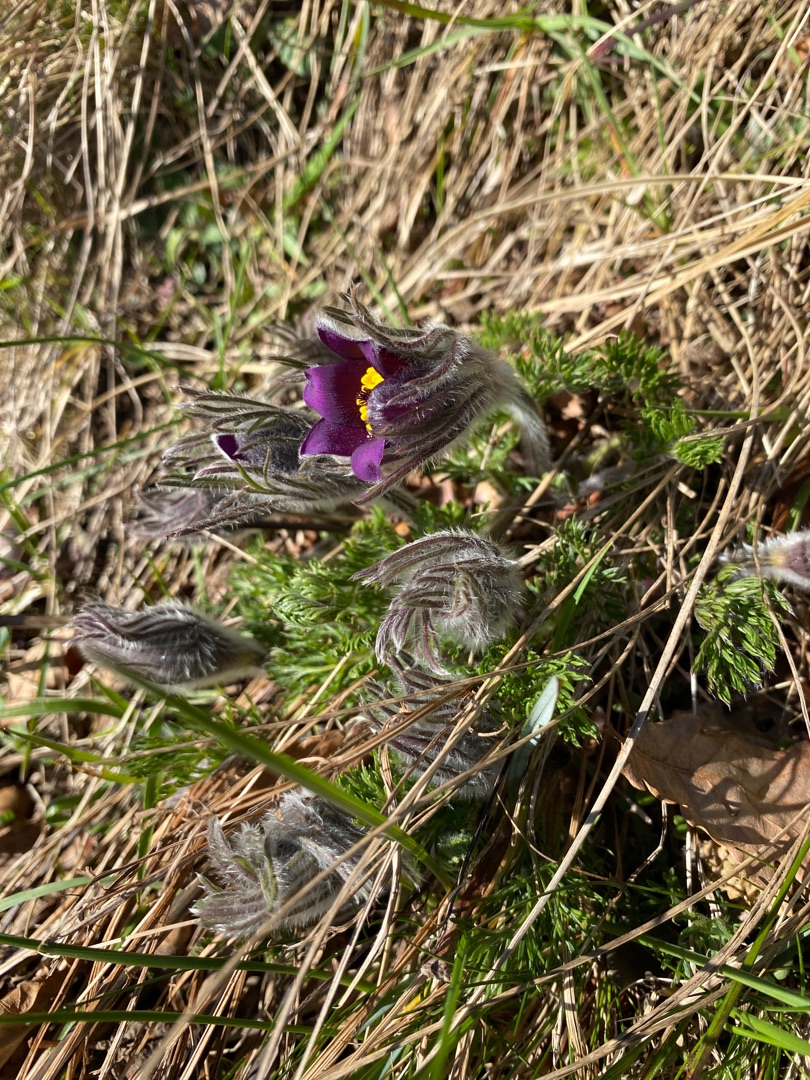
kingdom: Plantae
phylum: Tracheophyta
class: Magnoliopsida
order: Ranunculales
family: Ranunculaceae
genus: Pulsatilla
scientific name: Pulsatilla vulgaris
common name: Opret kobjælde
